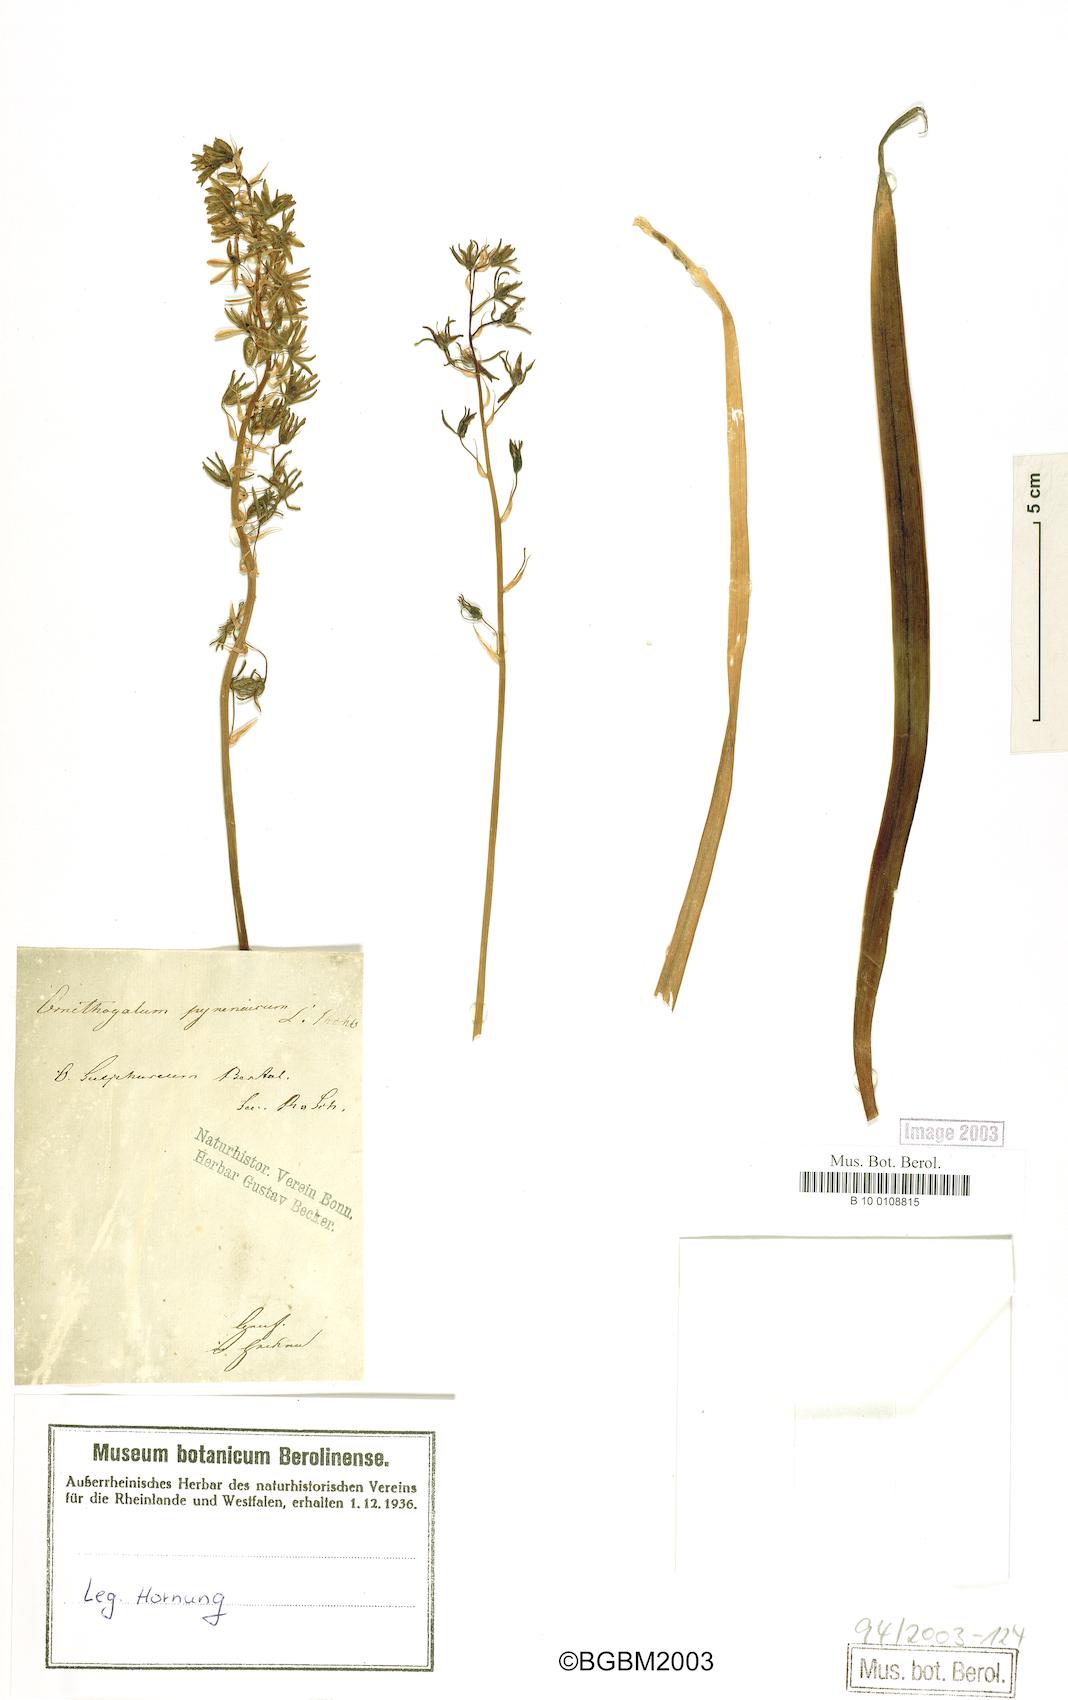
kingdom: Plantae
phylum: Tracheophyta
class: Liliopsida
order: Asparagales
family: Asparagaceae
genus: Ornithogalum
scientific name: Ornithogalum pyrenaicum
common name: Spiked star-of-bethlehem
